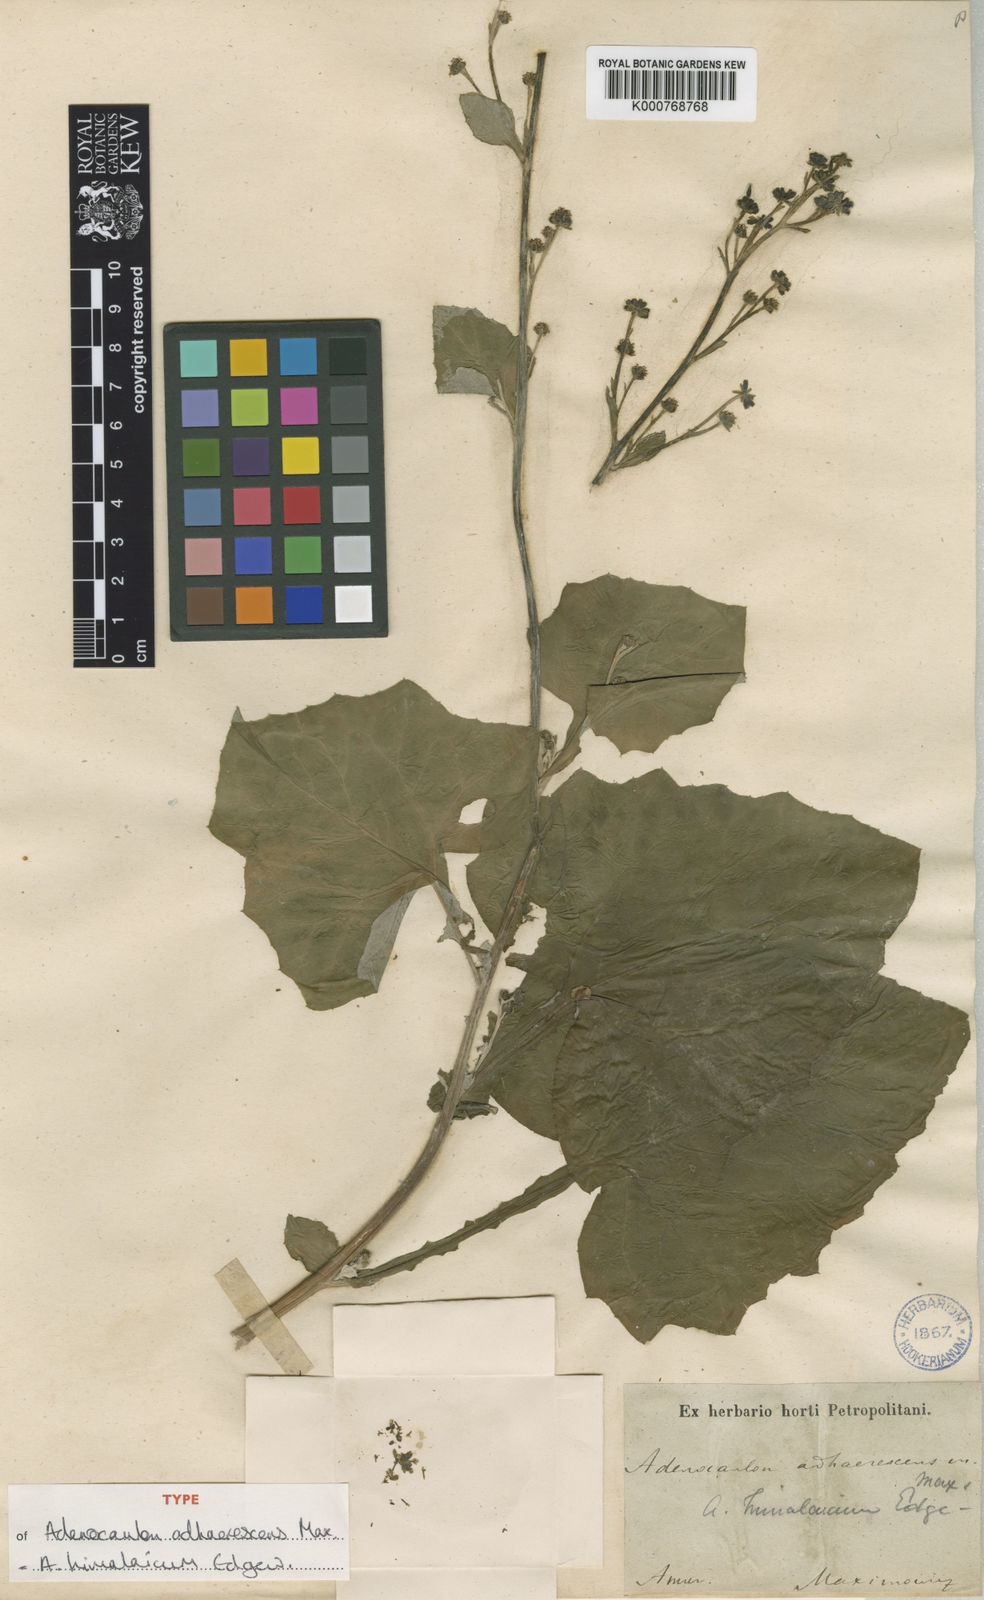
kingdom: Plantae
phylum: Tracheophyta
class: Magnoliopsida
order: Asterales
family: Asteraceae
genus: Adenocaulon
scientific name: Adenocaulon himalaicum
